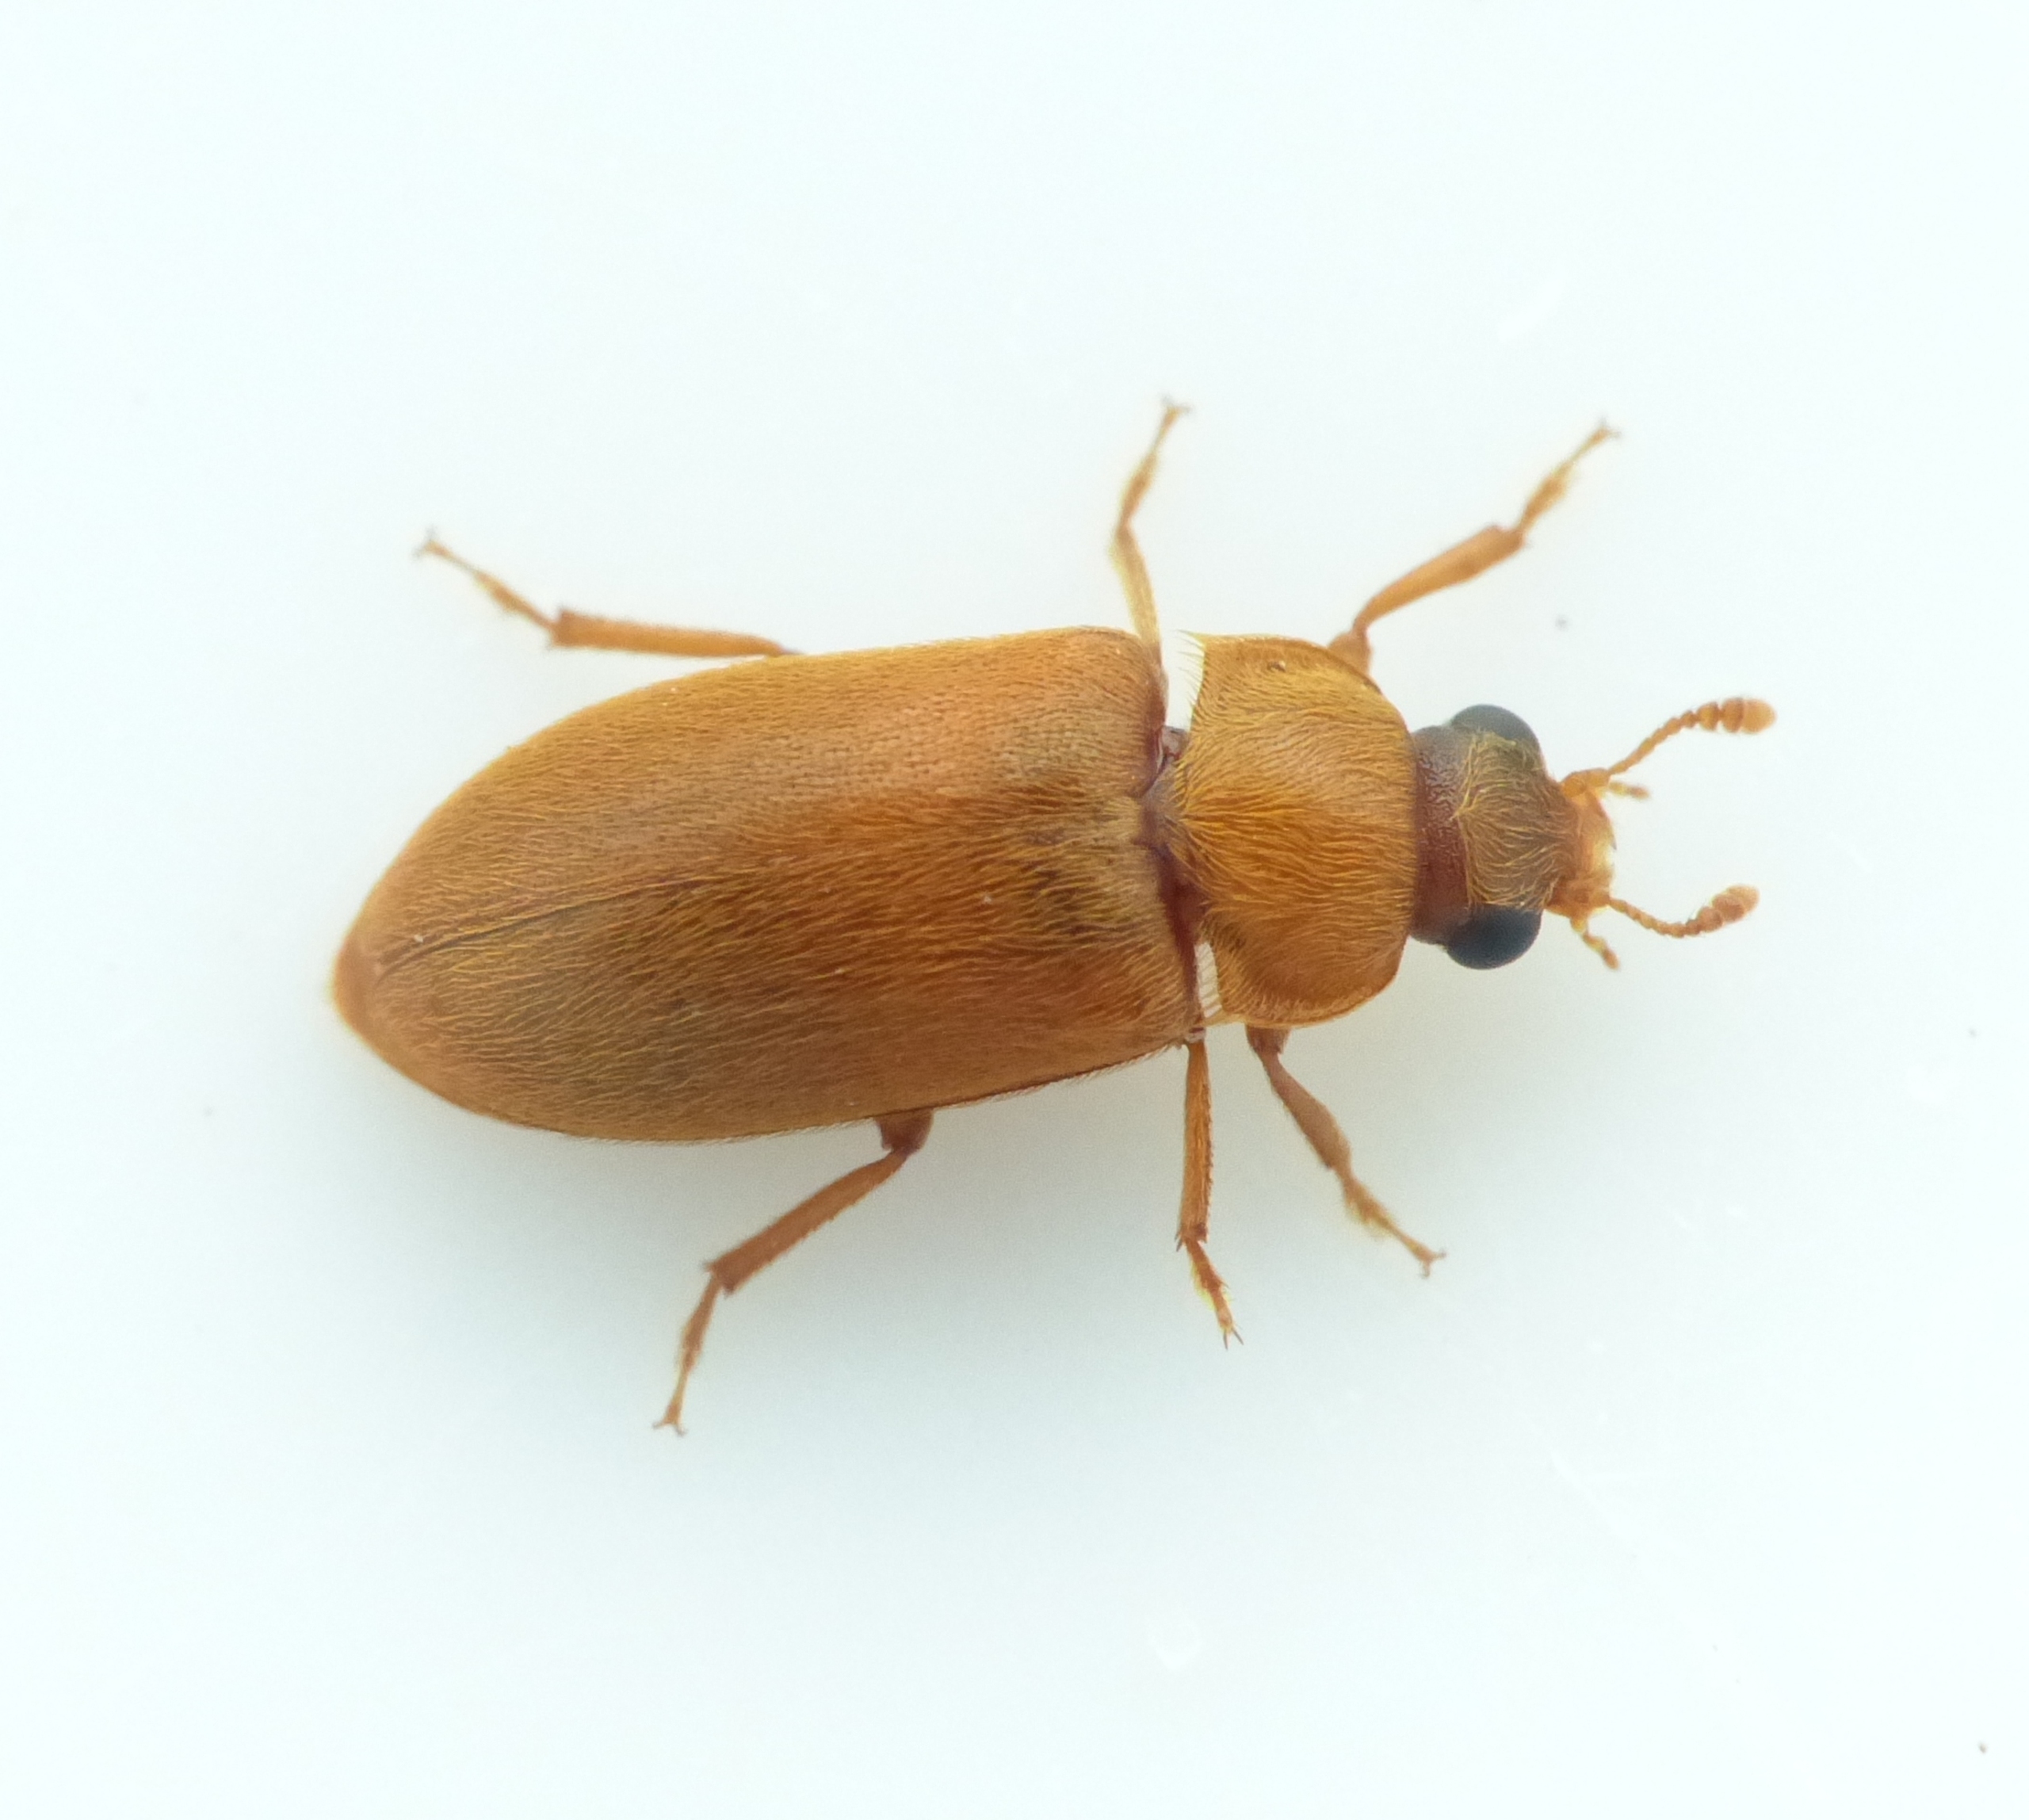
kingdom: Animalia
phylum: Arthropoda
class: Insecta
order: Coleoptera
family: Byturidae
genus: Byturus
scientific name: Byturus ochraceus
